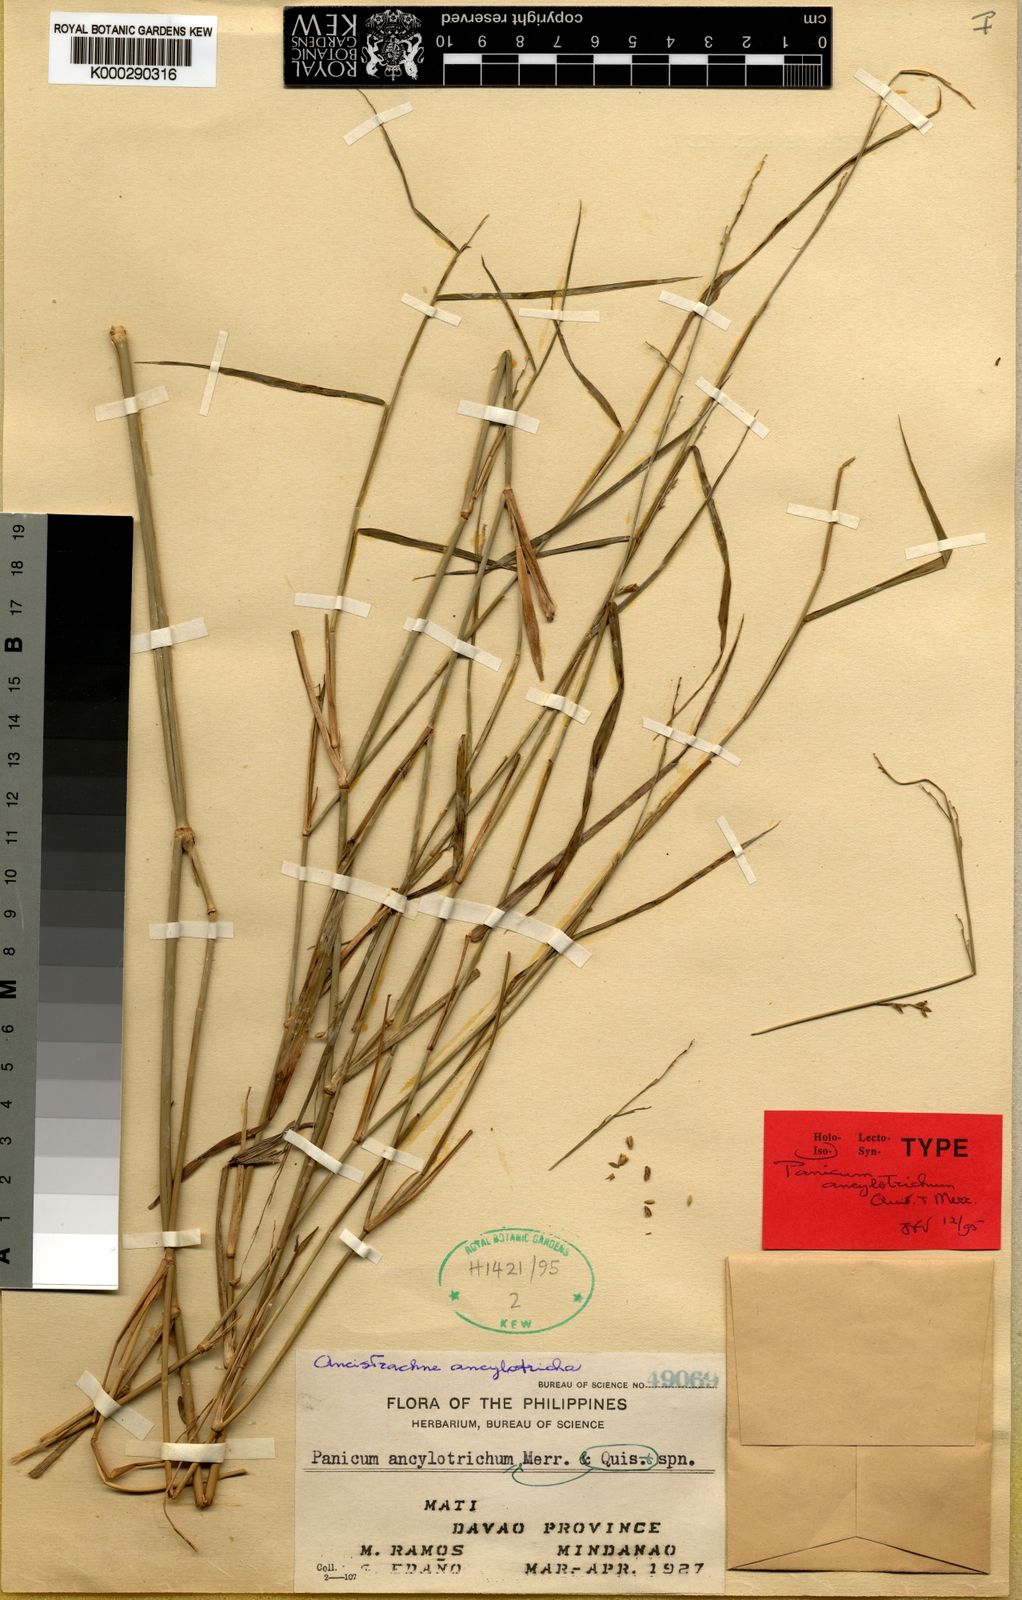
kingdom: Plantae
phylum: Tracheophyta
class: Liliopsida
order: Poales
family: Poaceae
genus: Ancistrachne
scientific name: Ancistrachne ancylotricha
